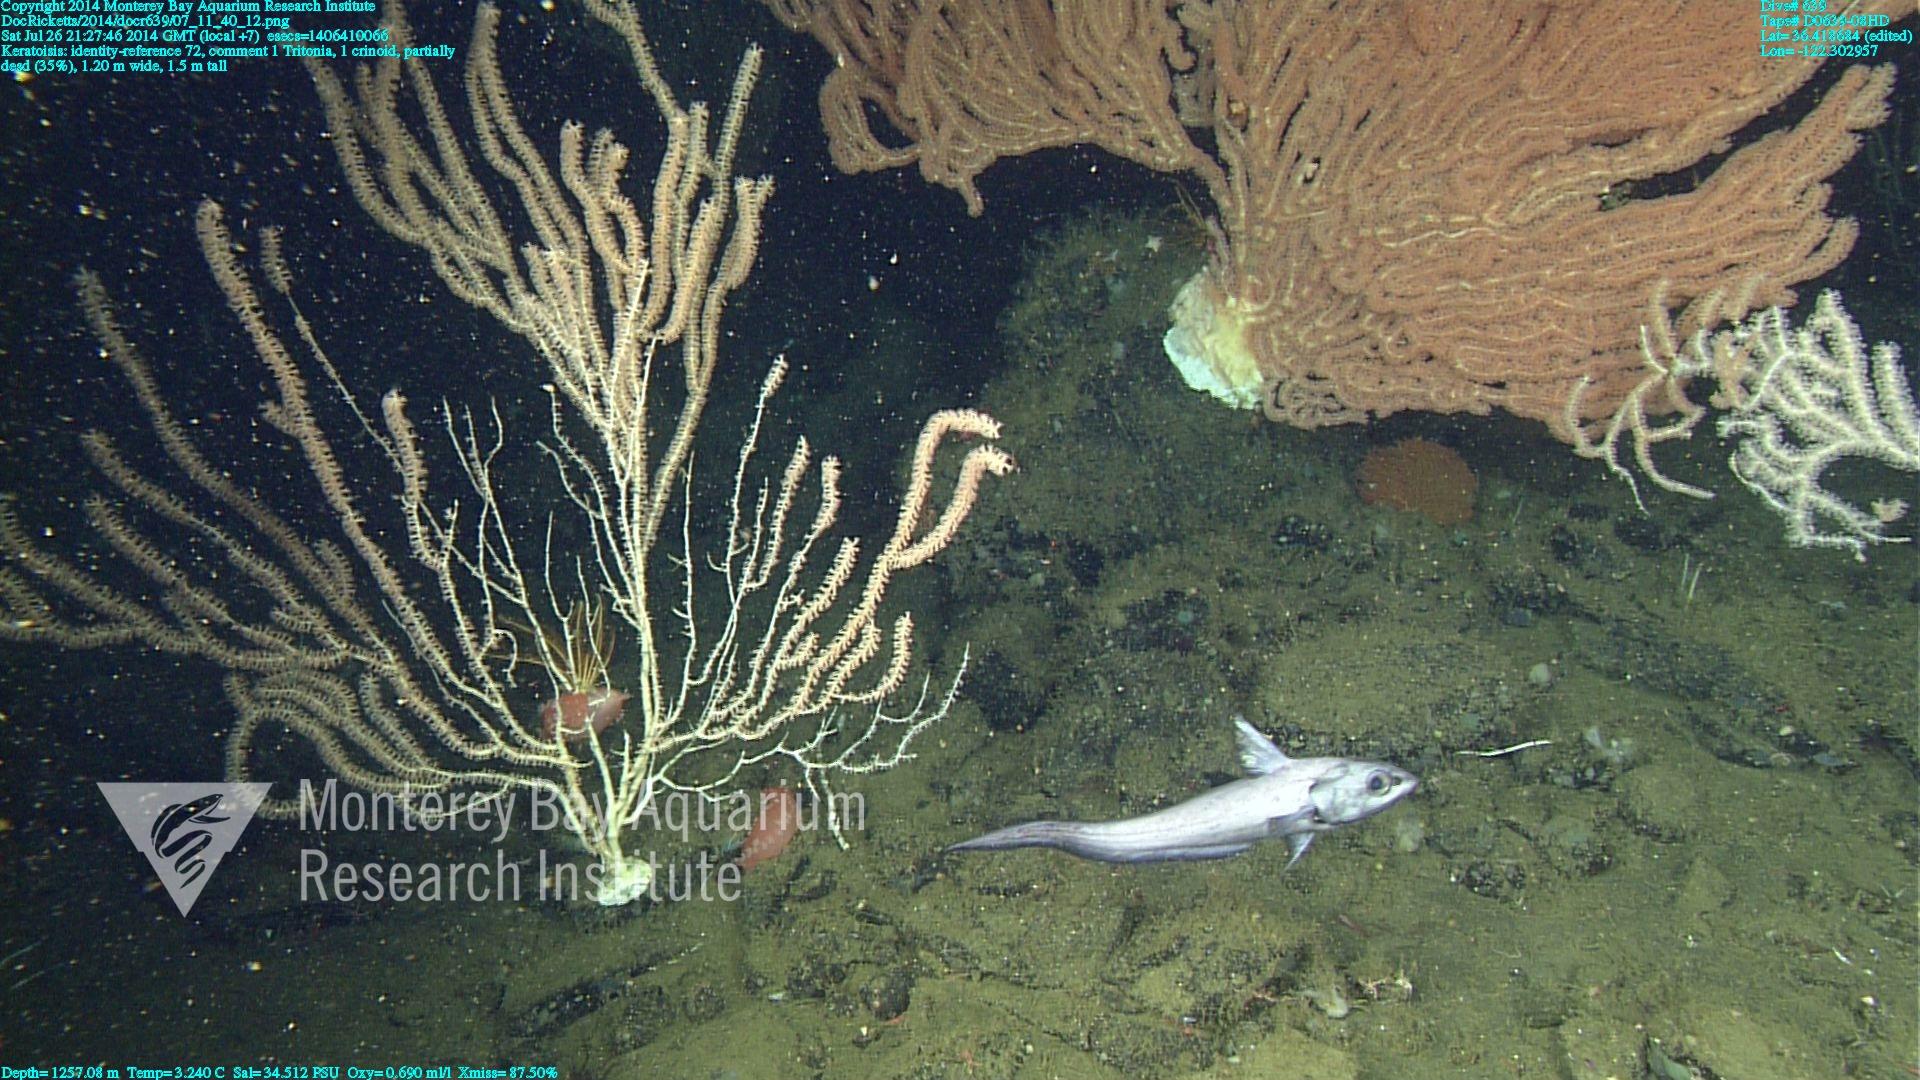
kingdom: Animalia
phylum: Cnidaria
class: Anthozoa
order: Scleralcyonacea
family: Keratoisididae
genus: Keratoisis
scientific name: Keratoisis
